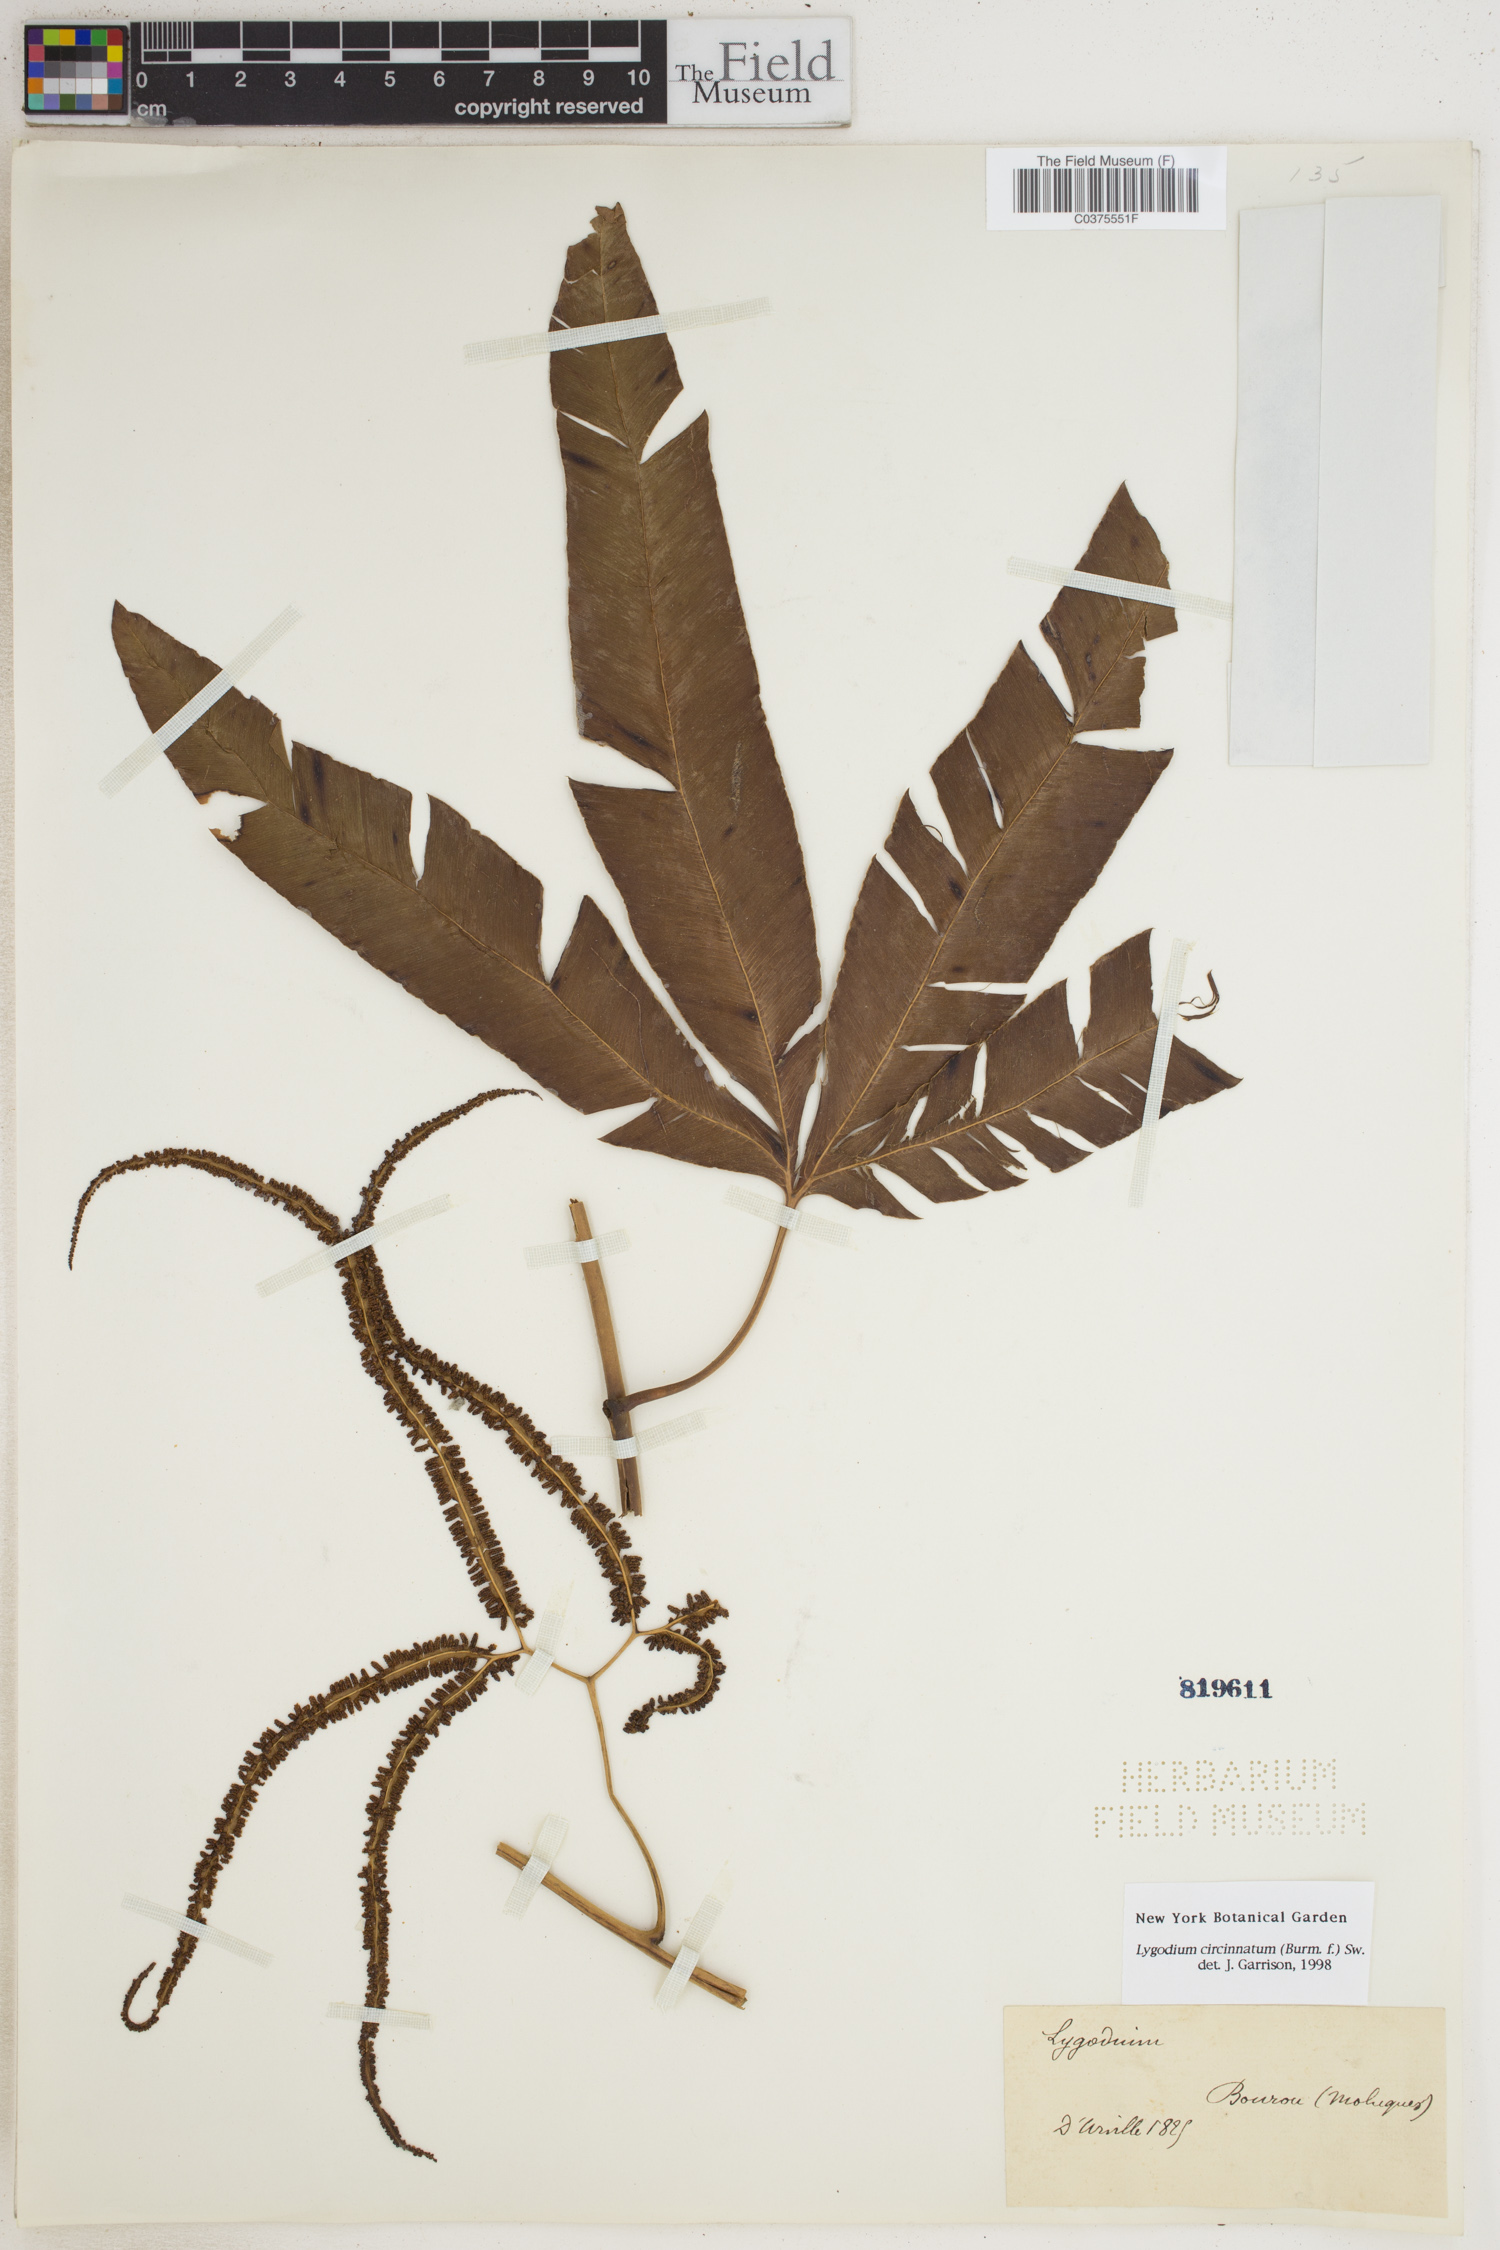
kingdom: Plantae
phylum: Tracheophyta
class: Polypodiopsida
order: Schizaeales
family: Lygodiaceae
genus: Lygodium
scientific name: Lygodium circinnatum
